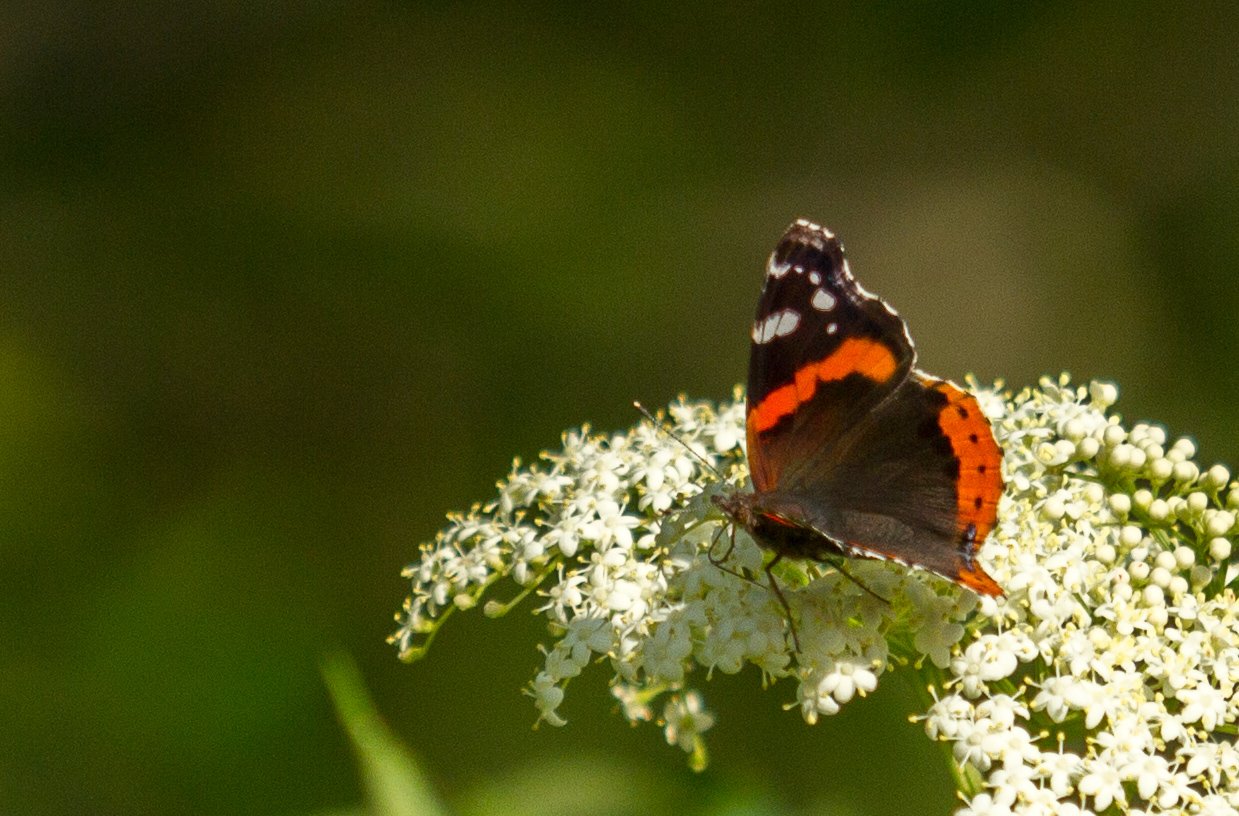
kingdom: Animalia
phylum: Arthropoda
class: Insecta
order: Lepidoptera
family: Nymphalidae
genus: Vanessa
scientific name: Vanessa atalanta
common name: Red Admiral
